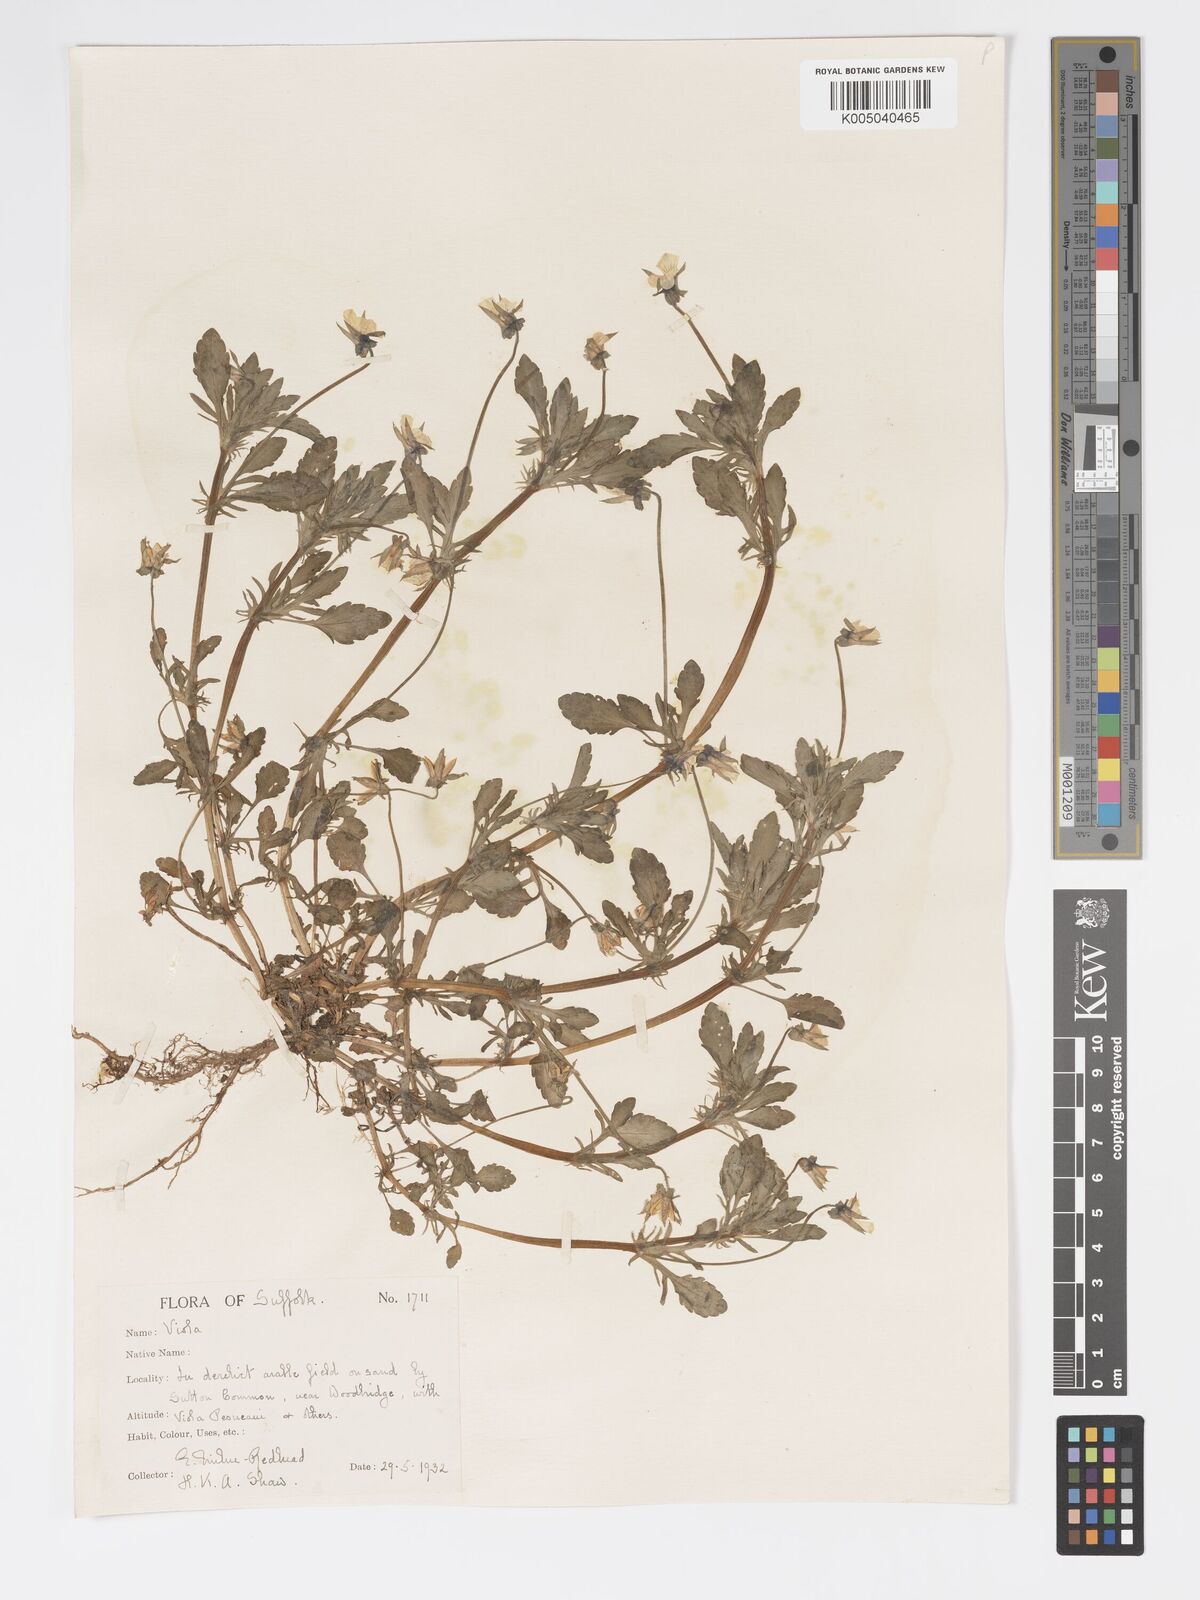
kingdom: Plantae
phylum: Tracheophyta
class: Magnoliopsida
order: Malpighiales
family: Violaceae
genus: Viola
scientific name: Viola arvensis
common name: Field pansy
